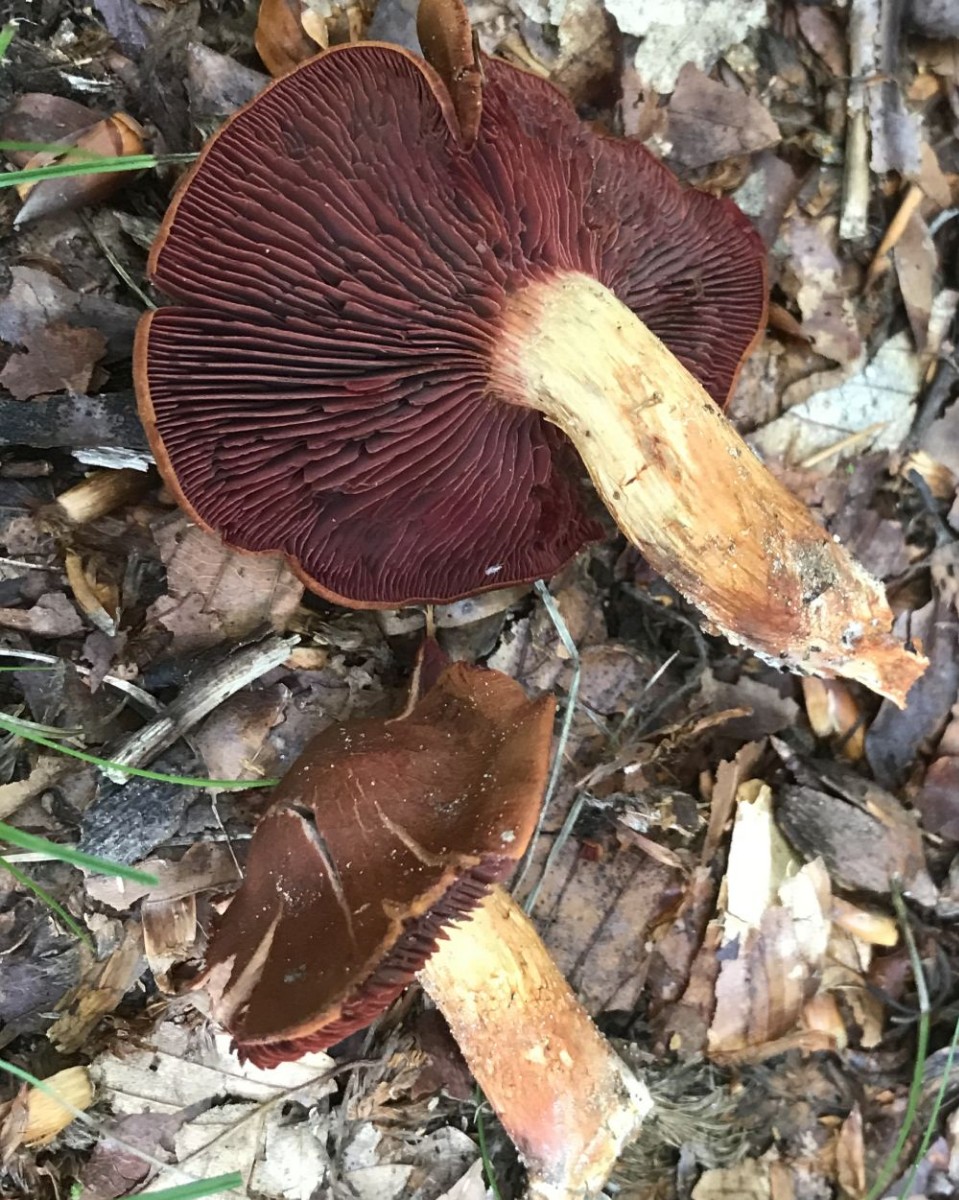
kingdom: Fungi
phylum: Basidiomycota
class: Agaricomycetes
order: Agaricales
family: Cortinariaceae
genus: Cortinarius
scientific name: Cortinarius
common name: cinnoberbladet slørhat
